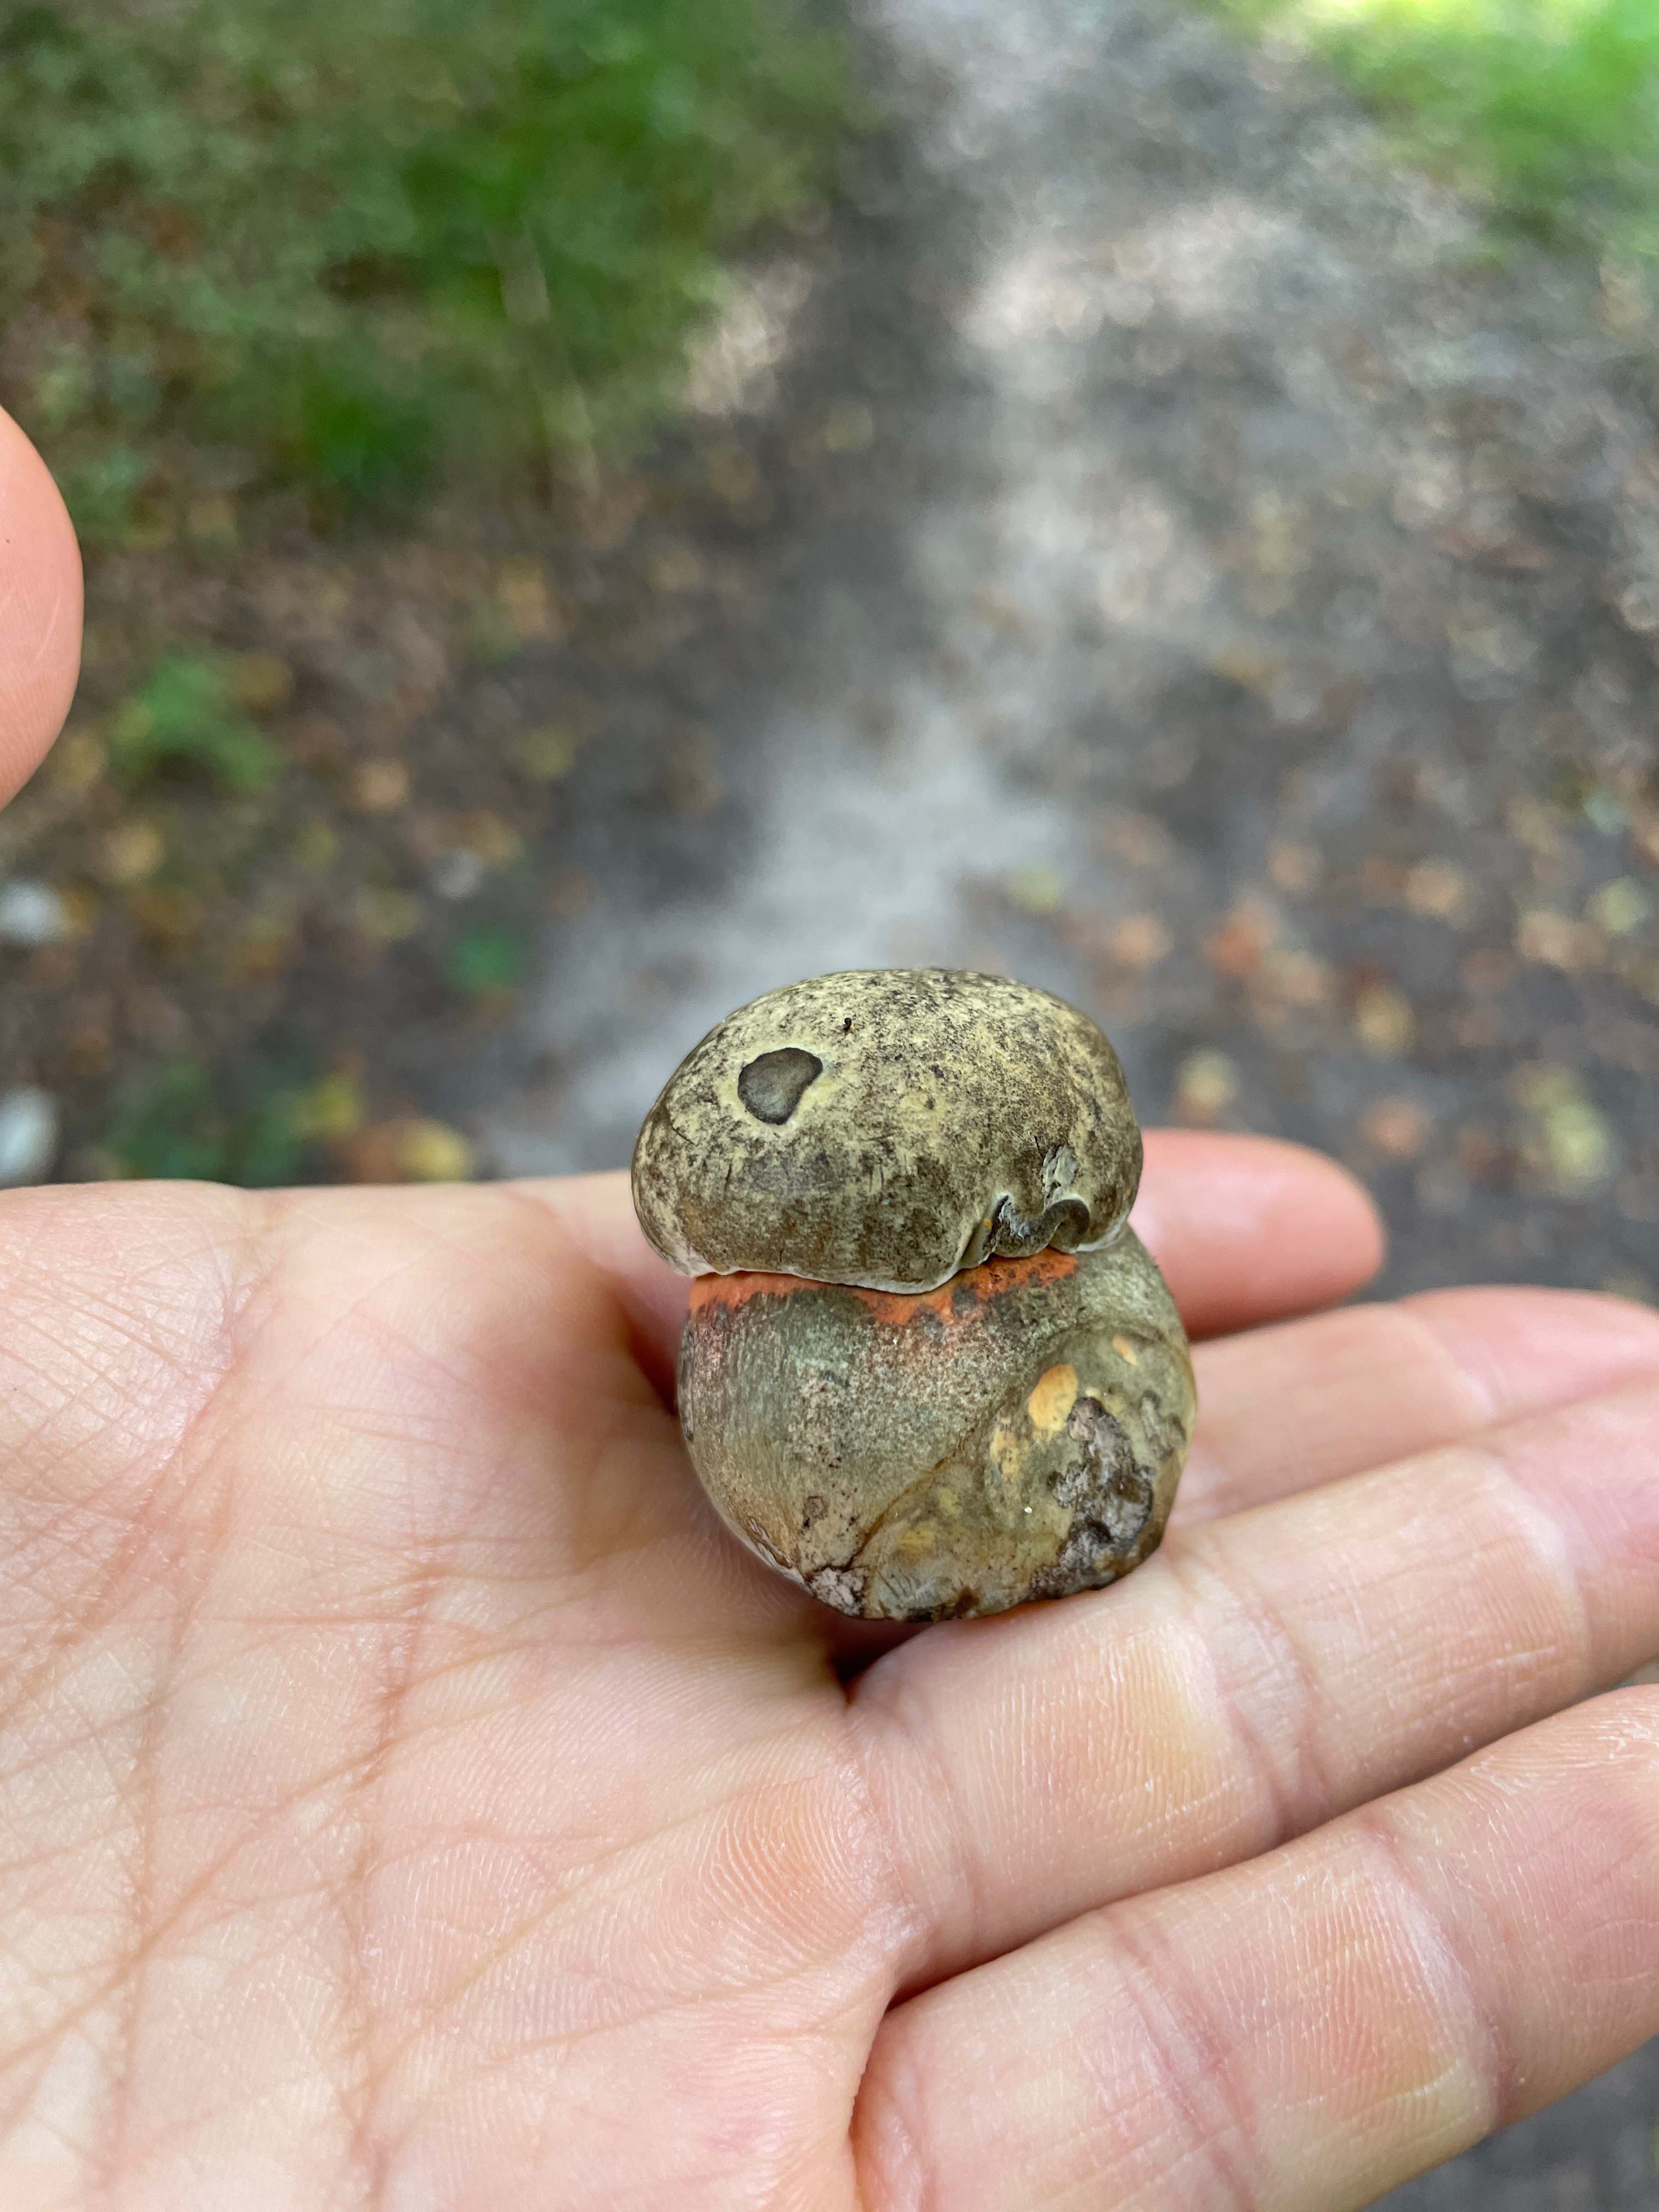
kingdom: Fungi
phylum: Basidiomycota
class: Agaricomycetes
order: Boletales
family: Boletaceae
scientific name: Boletaceae
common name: rørhatfamilien
